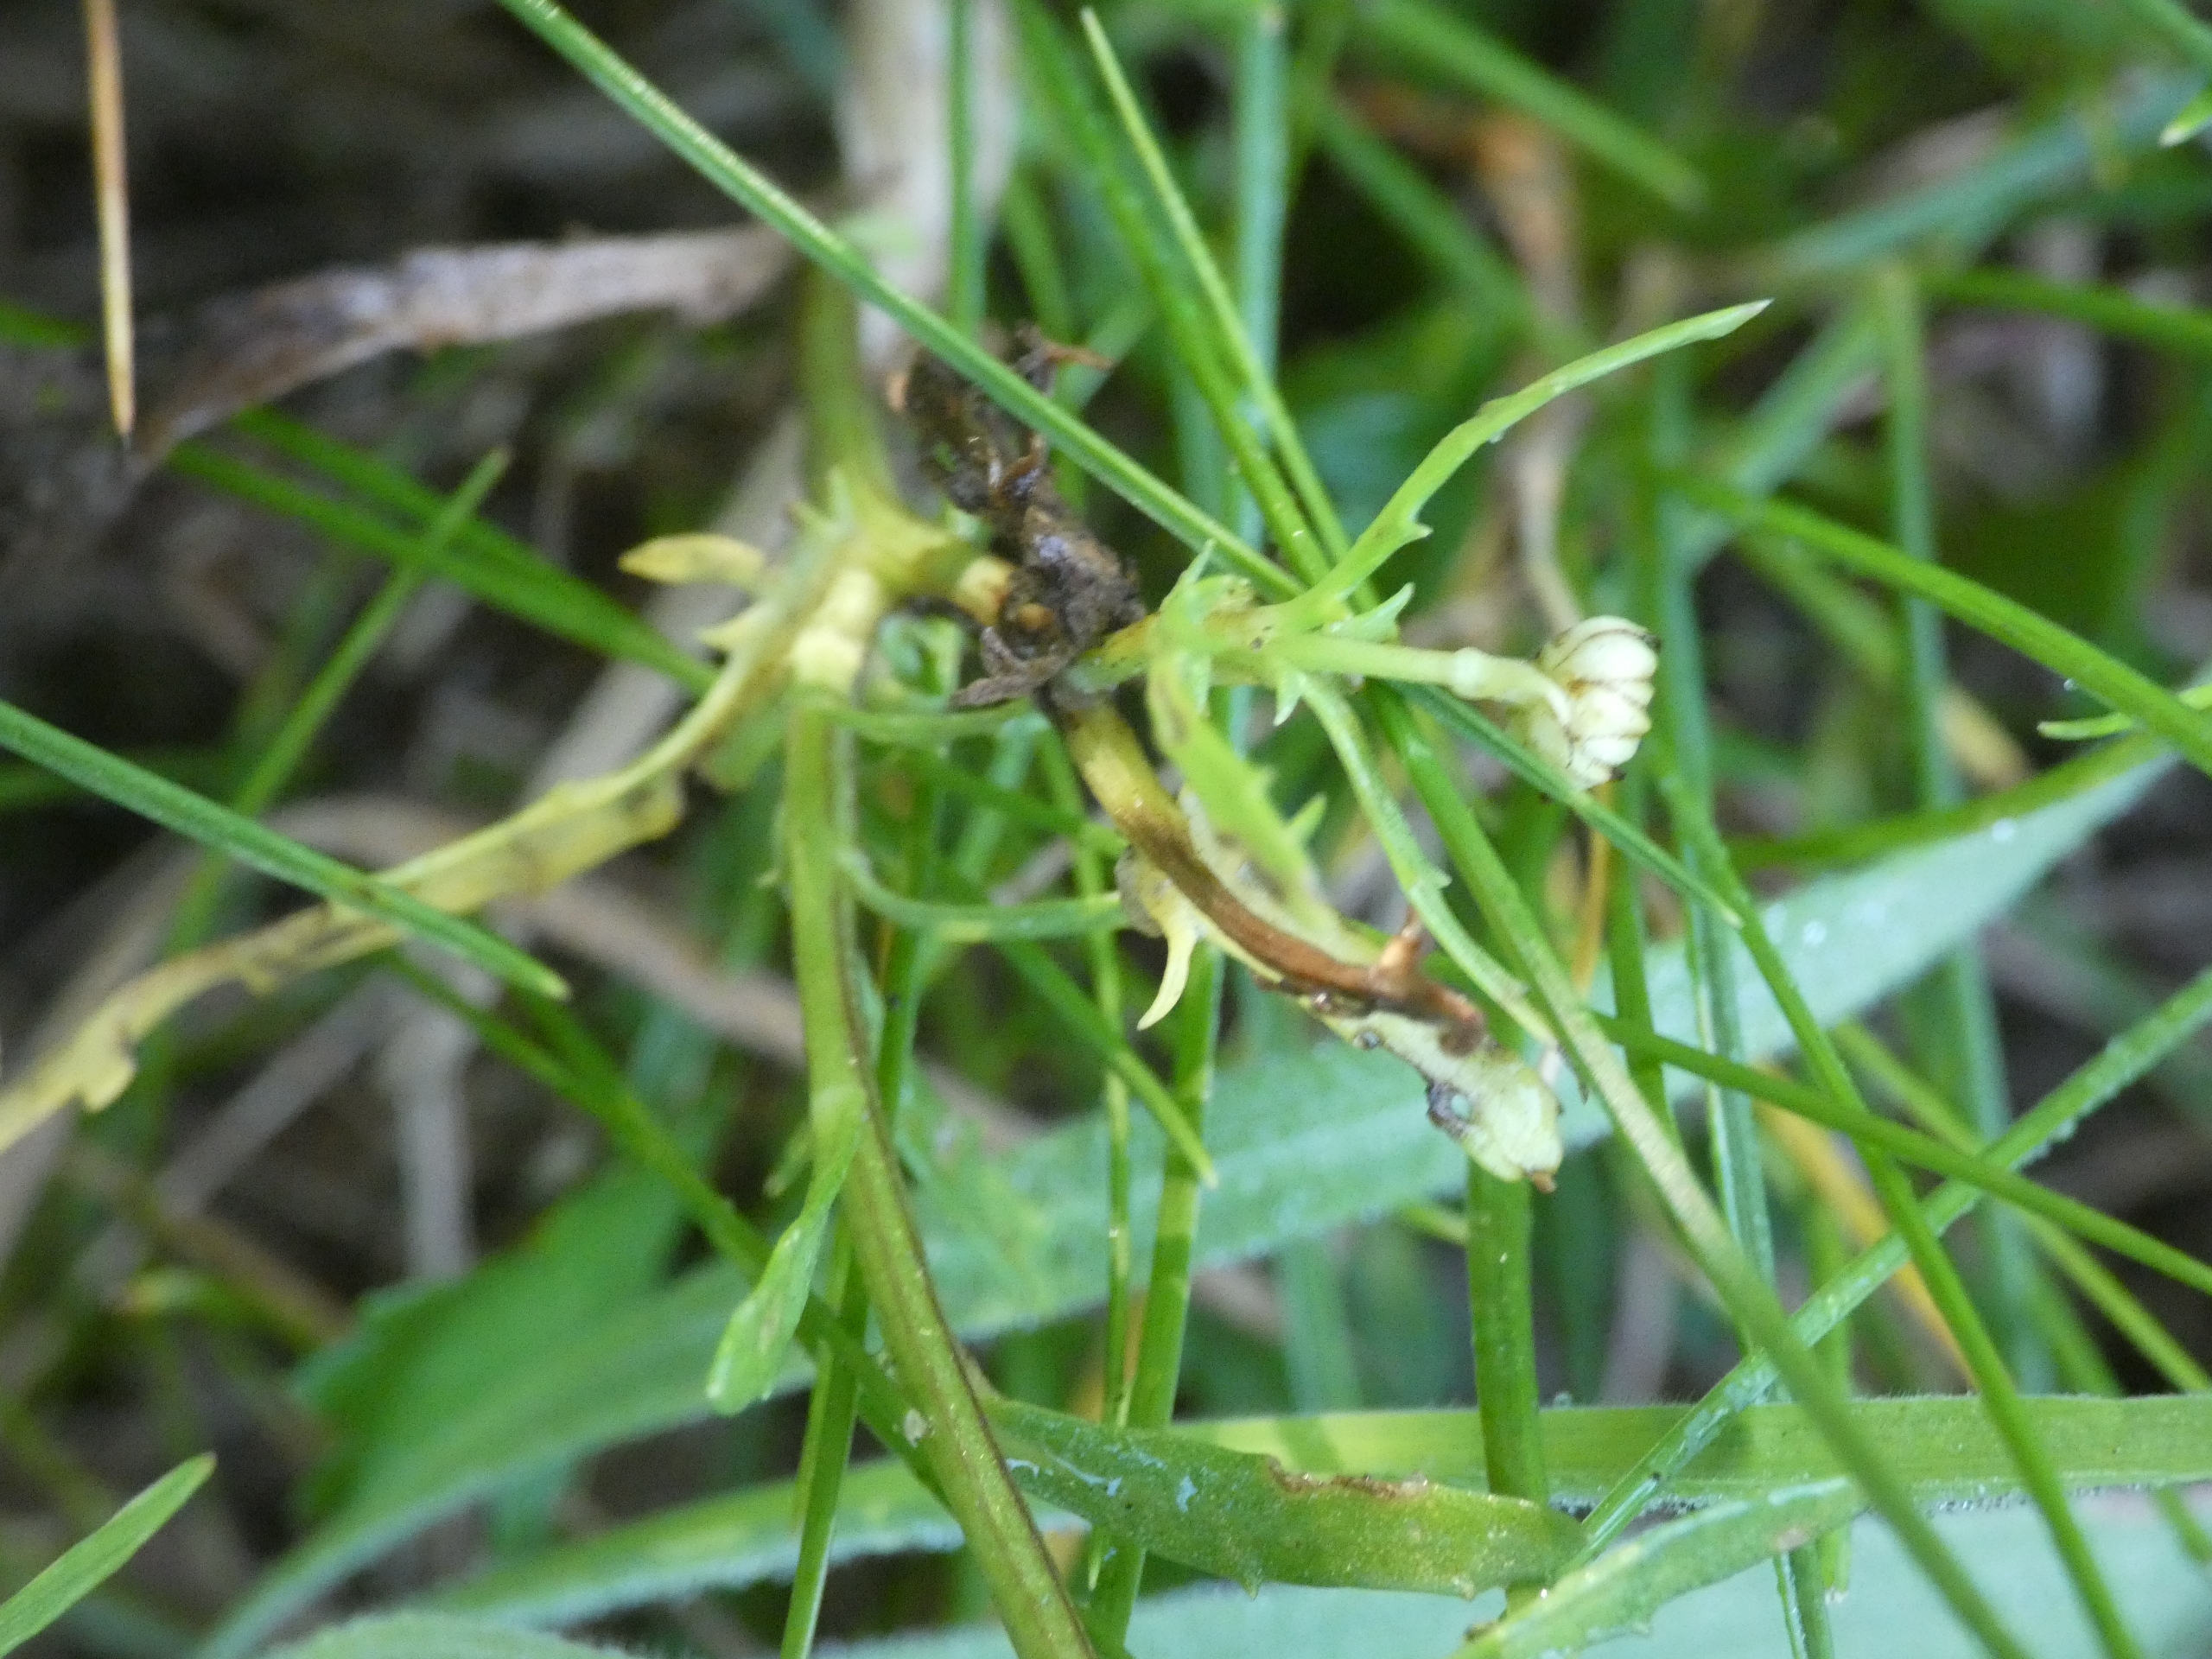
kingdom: Plantae
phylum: Tracheophyta
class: Magnoliopsida
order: Asterales
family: Asteraceae
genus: Leucanthemum
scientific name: Leucanthemum vulgare
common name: Hvid okseøje
